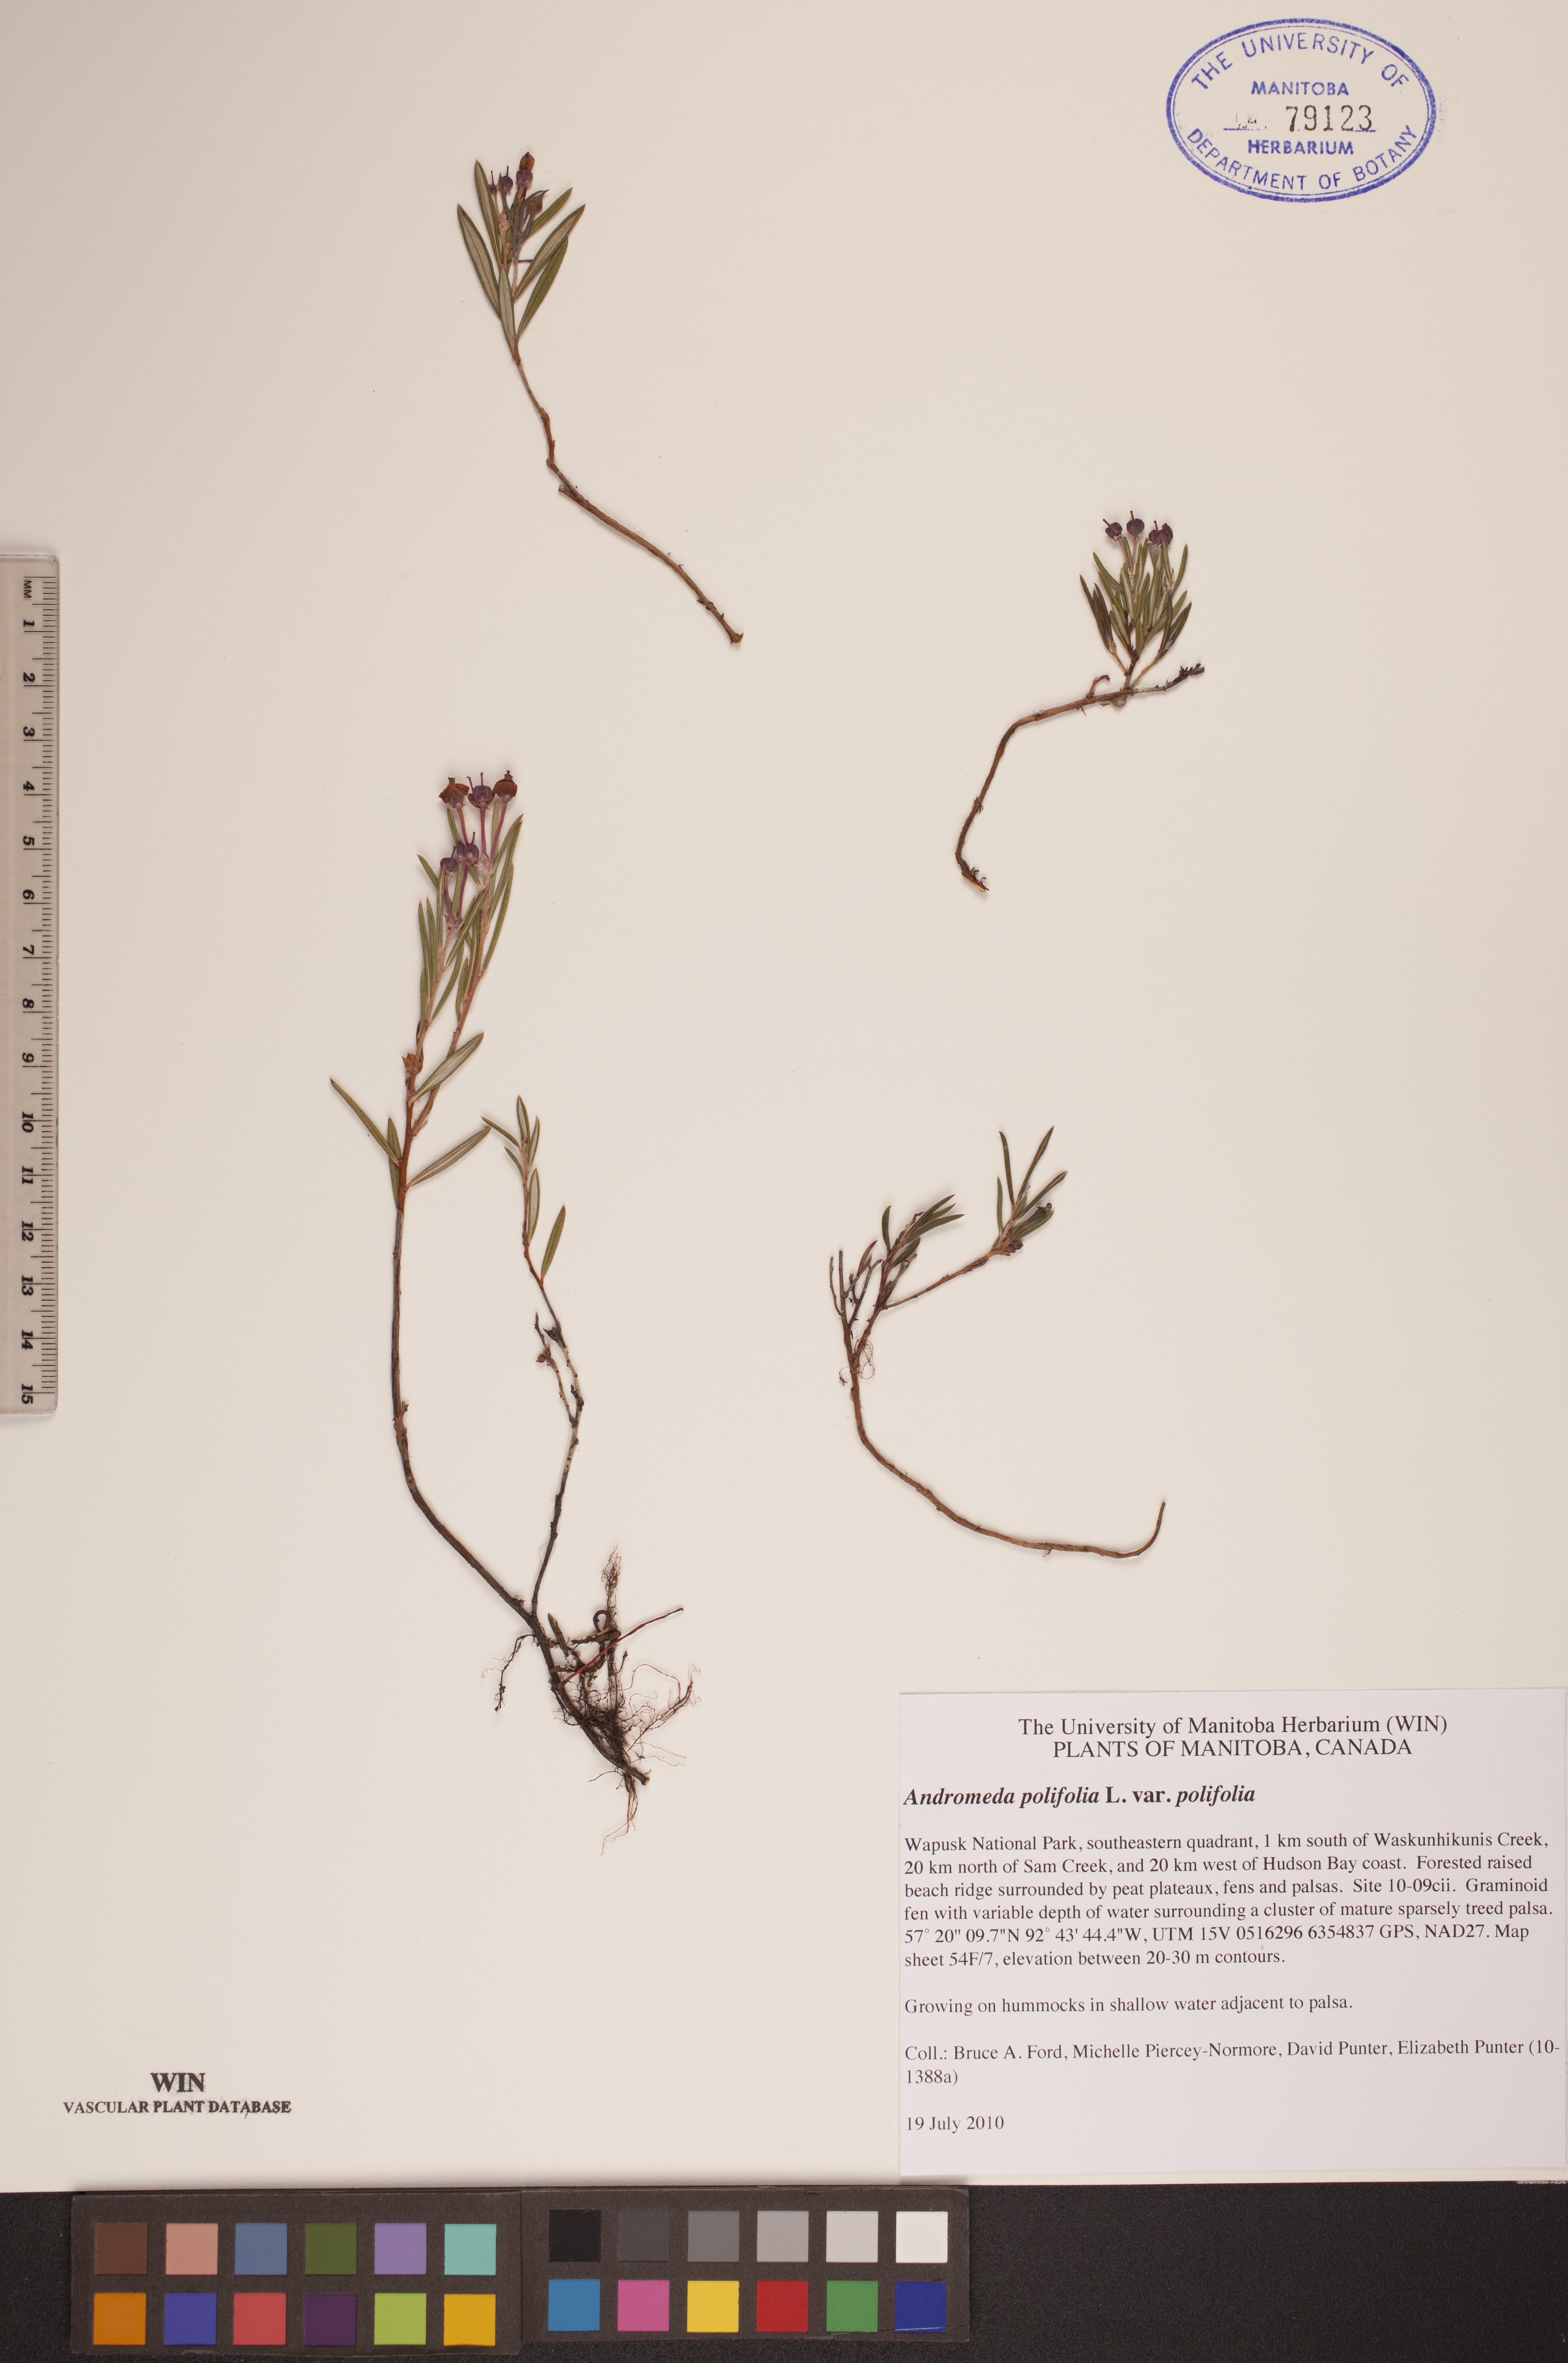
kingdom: Plantae
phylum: Tracheophyta
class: Magnoliopsida
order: Ericales
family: Ericaceae
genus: Andromeda
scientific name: Andromeda polifolia
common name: Bog-rosemary
